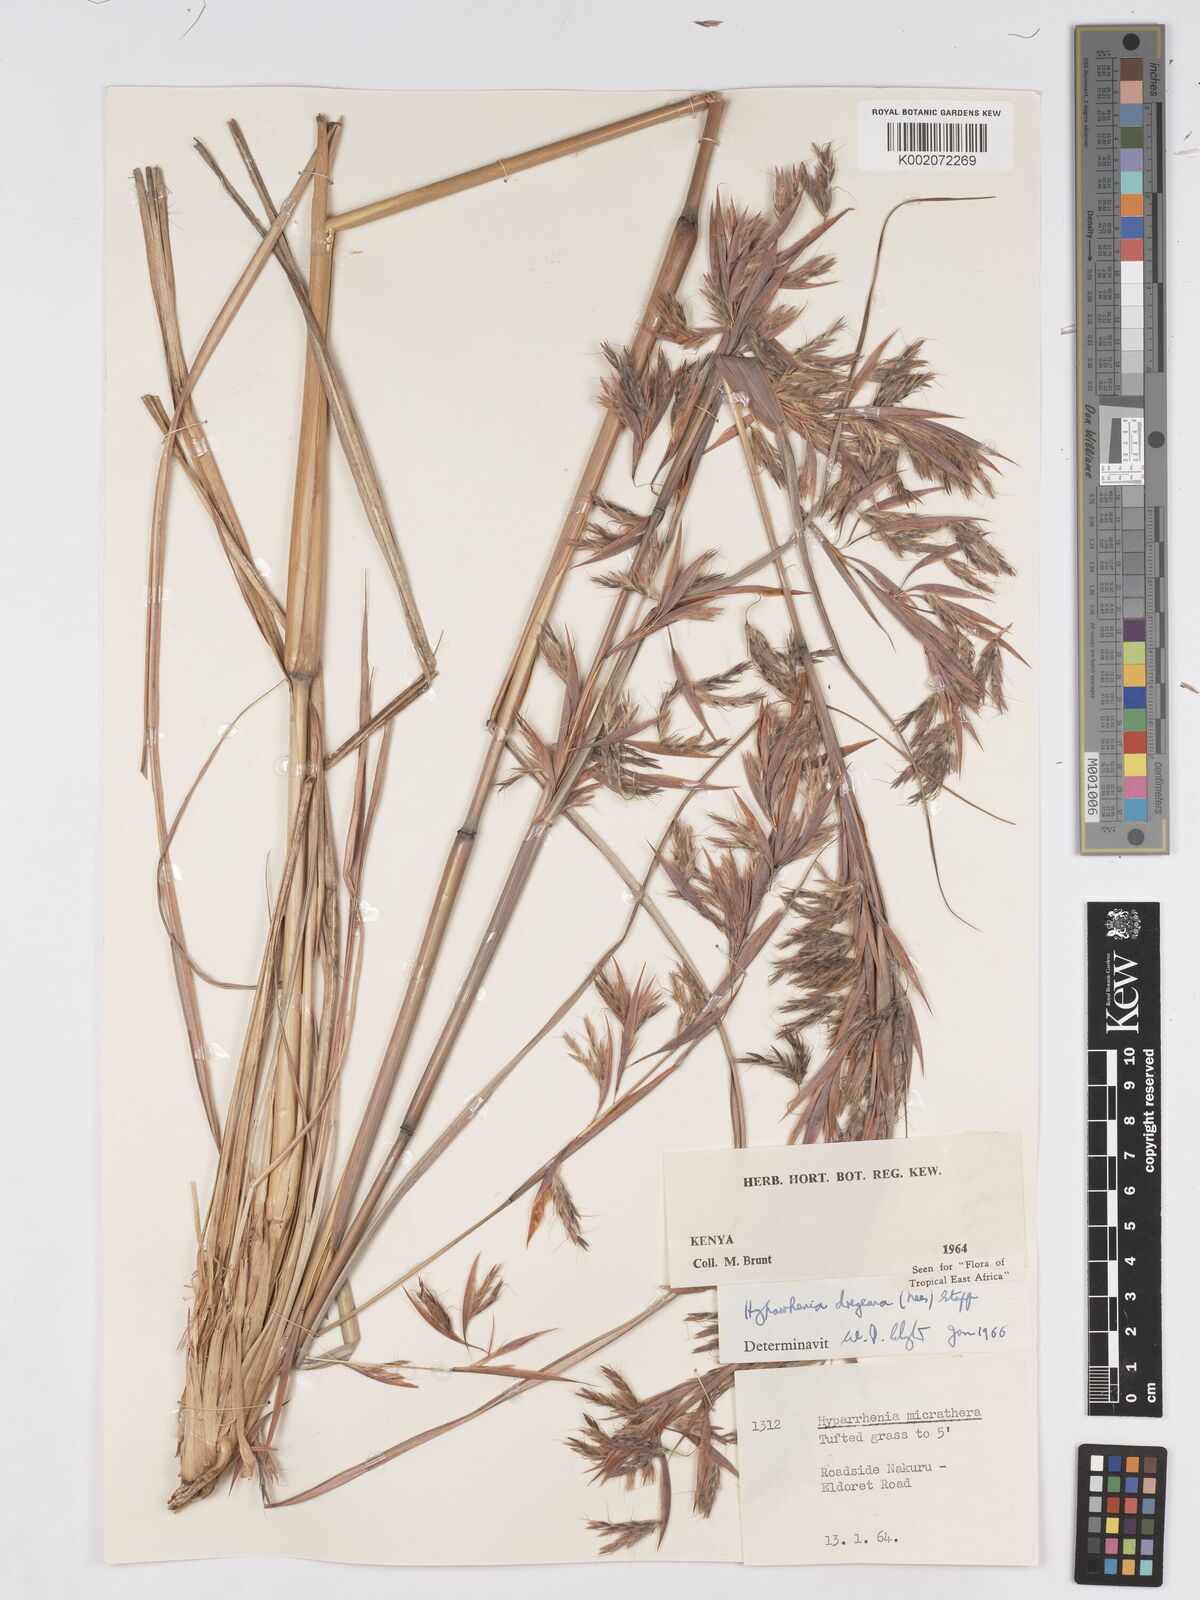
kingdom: Plantae
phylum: Tracheophyta
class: Liliopsida
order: Poales
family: Poaceae
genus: Hyparrhenia
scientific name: Hyparrhenia dregeana
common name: Silky thatching grass
